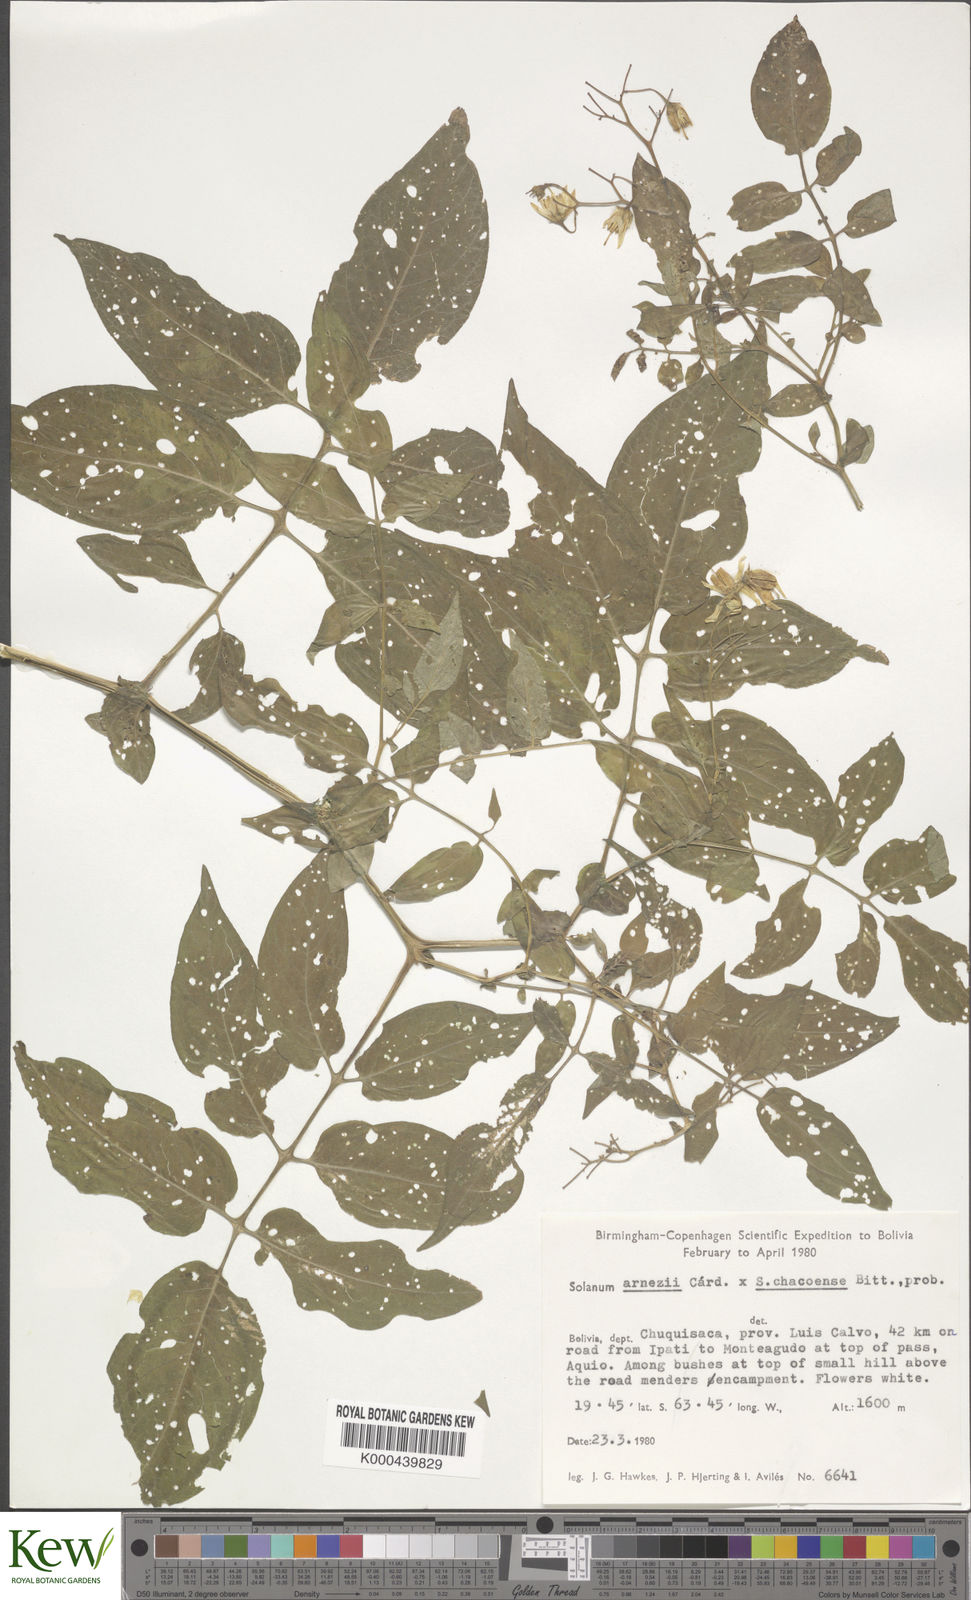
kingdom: Plantae
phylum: Tracheophyta
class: Magnoliopsida
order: Solanales
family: Solanaceae
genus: Solanum
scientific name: Solanum chacoense
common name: Chaco potato
